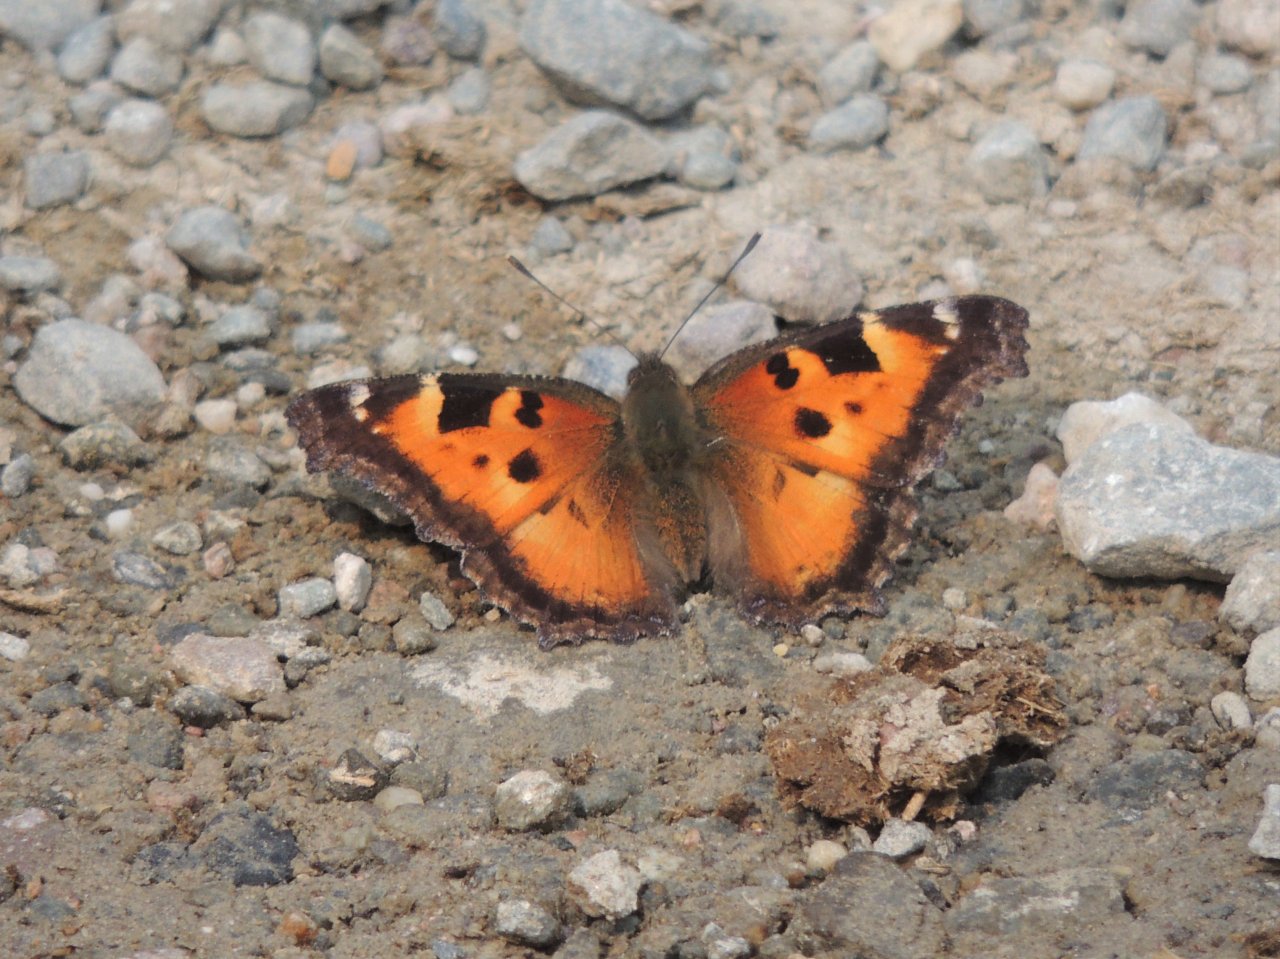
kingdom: Animalia
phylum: Arthropoda
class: Insecta
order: Lepidoptera
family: Nymphalidae
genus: Nymphalis
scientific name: Nymphalis californica
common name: California Tortoiseshell
